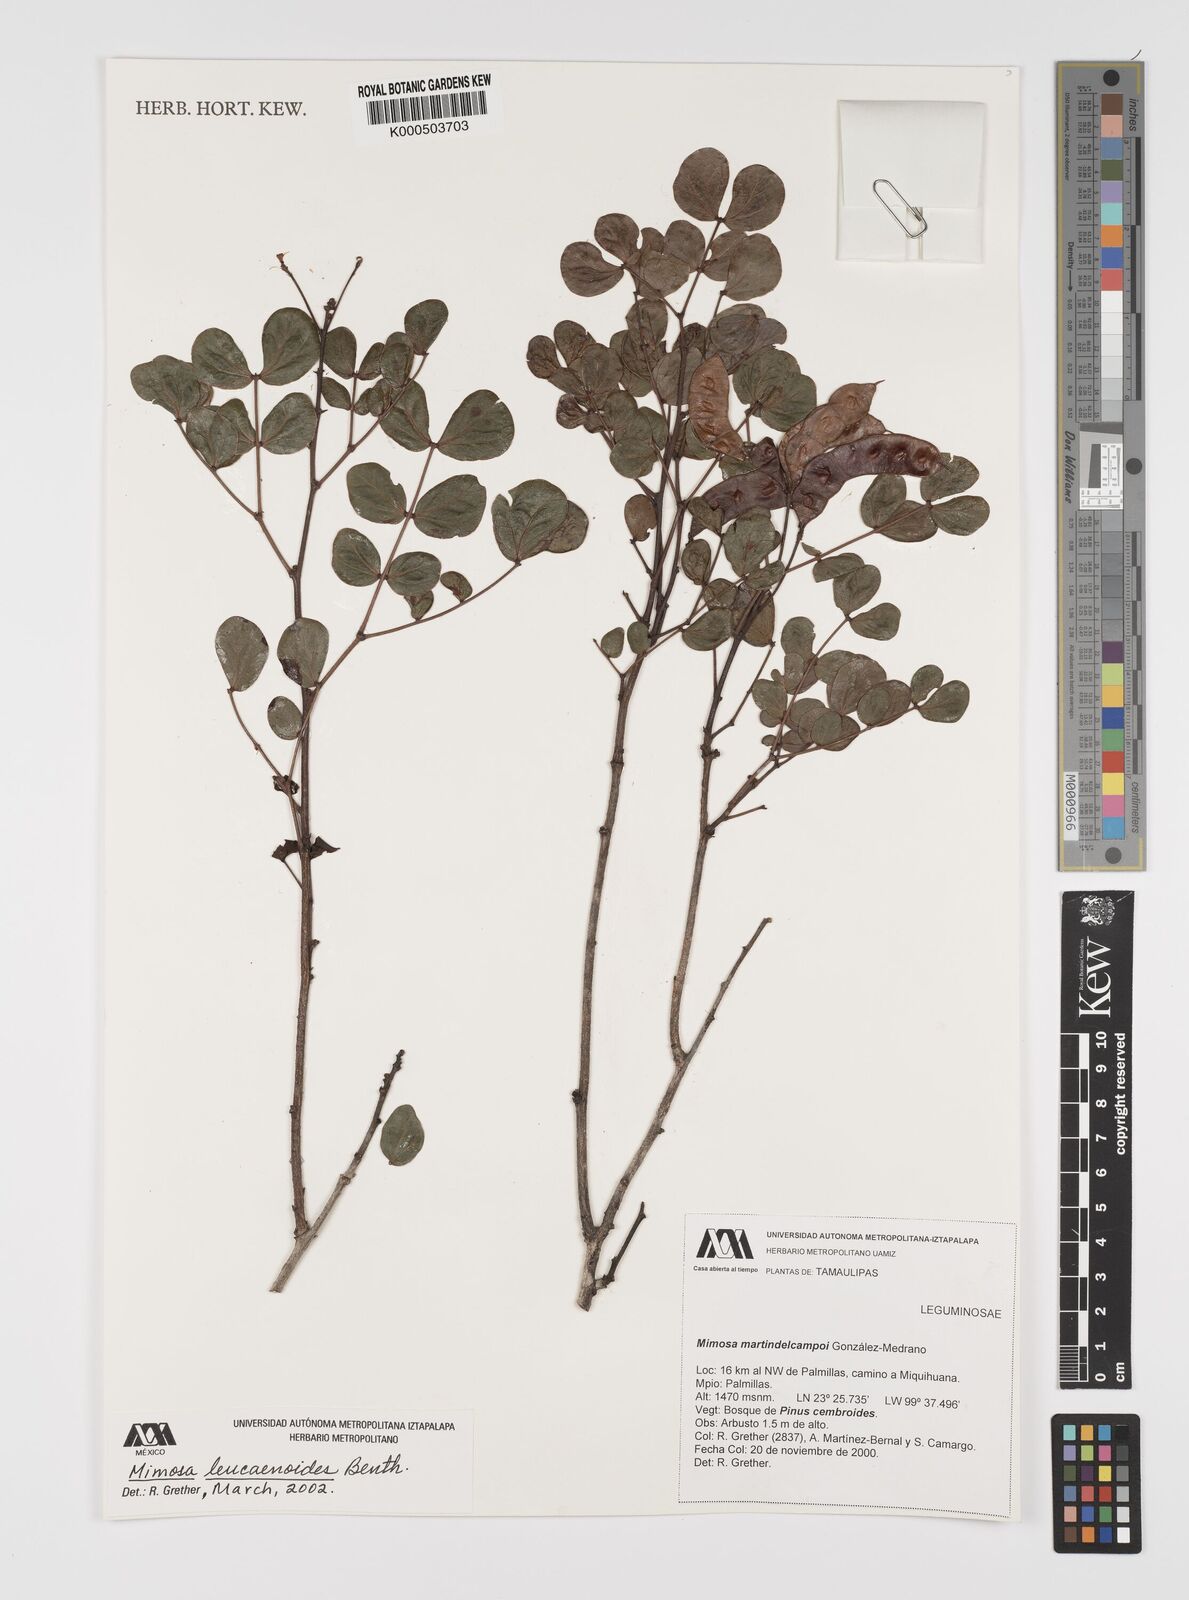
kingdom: Plantae
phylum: Tracheophyta
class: Magnoliopsida
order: Fabales
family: Fabaceae
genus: Mimosa
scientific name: Mimosa leucaenoides
